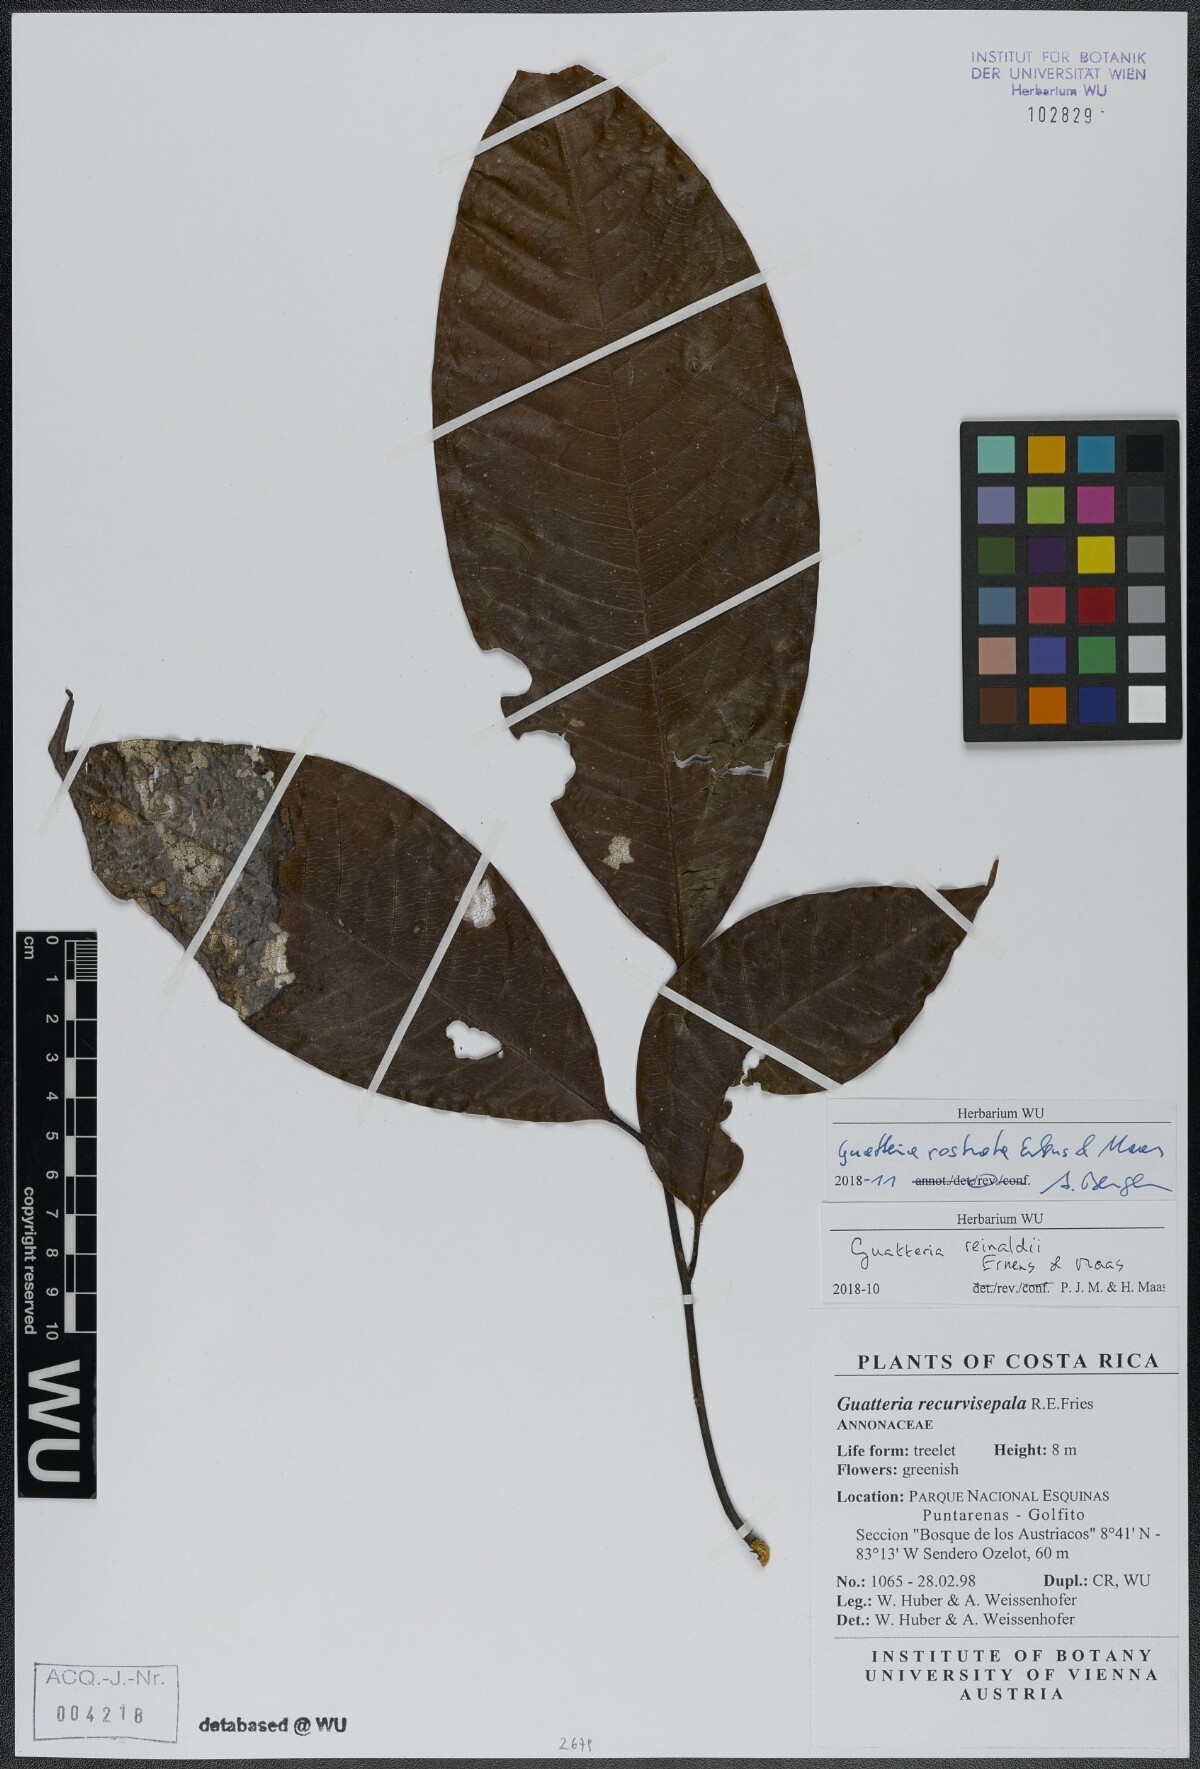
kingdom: Plantae
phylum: Tracheophyta
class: Magnoliopsida
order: Magnoliales
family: Annonaceae
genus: Guatteria
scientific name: Guatteria reinaldii
